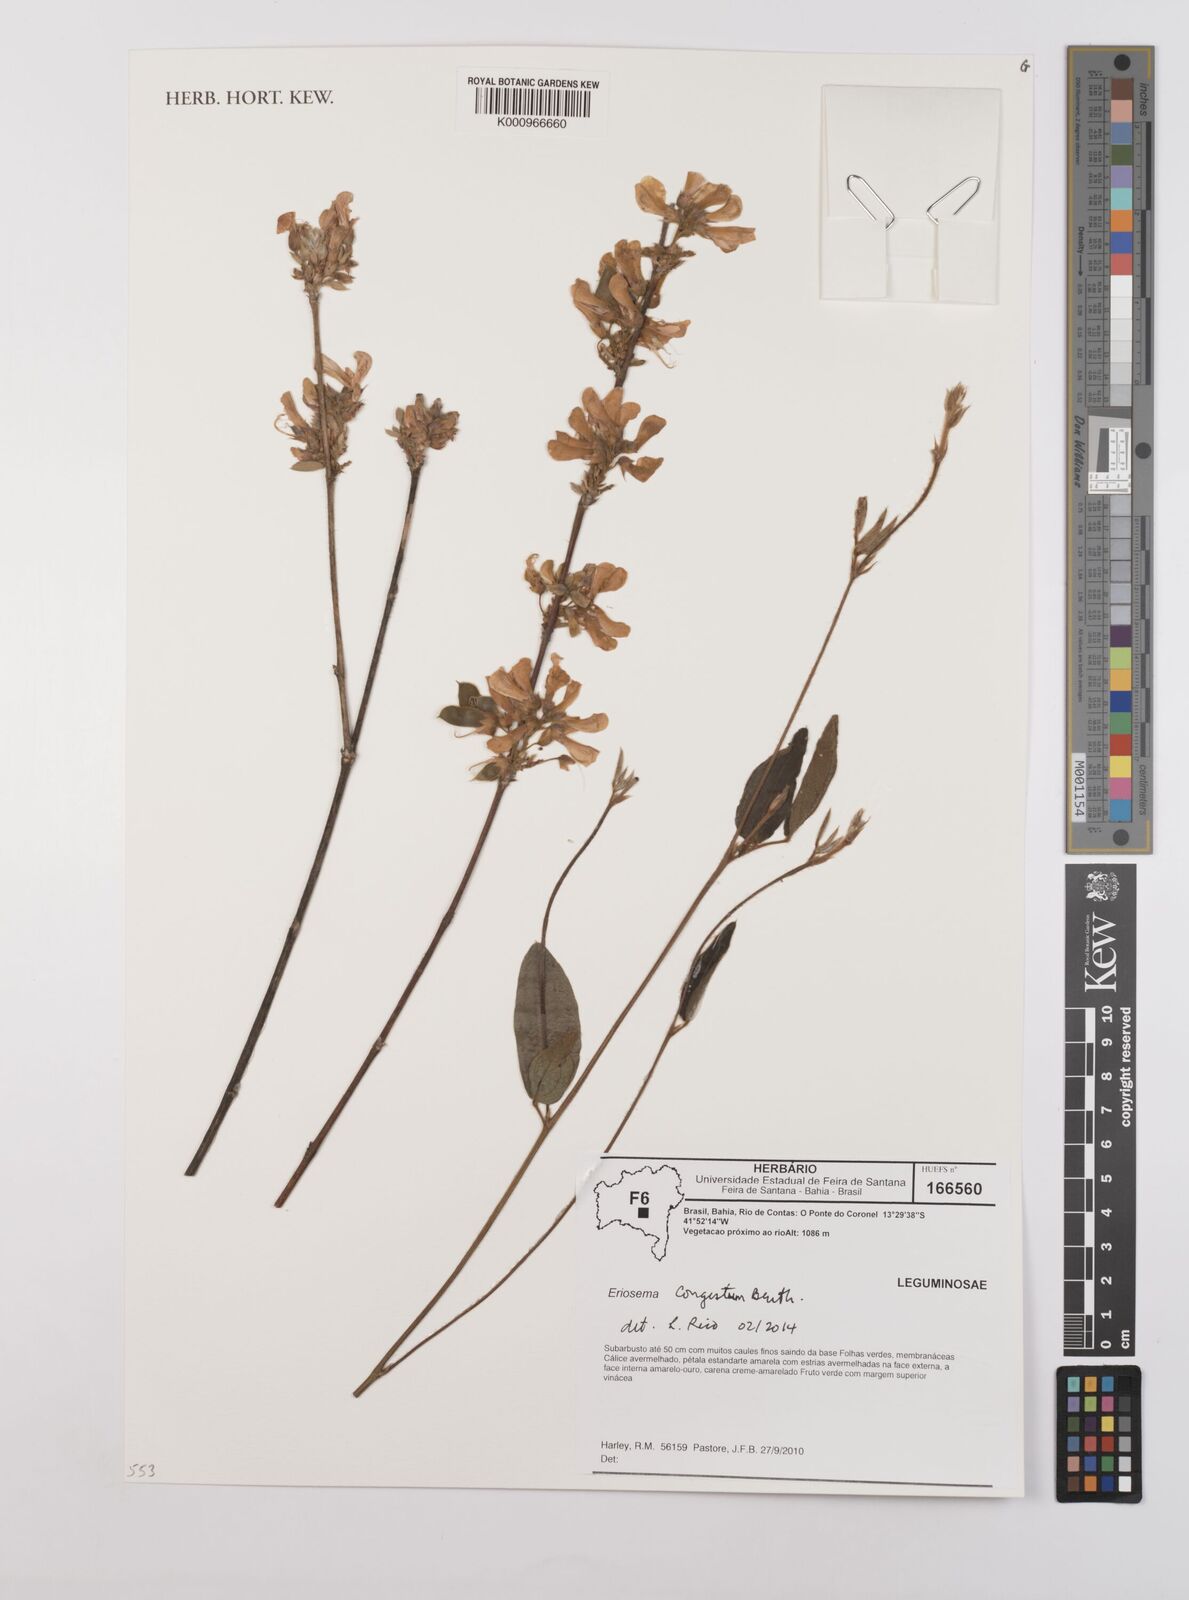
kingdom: Plantae
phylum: Tracheophyta
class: Magnoliopsida
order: Fabales
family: Fabaceae
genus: Eriosema
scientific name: Eriosema congestum
